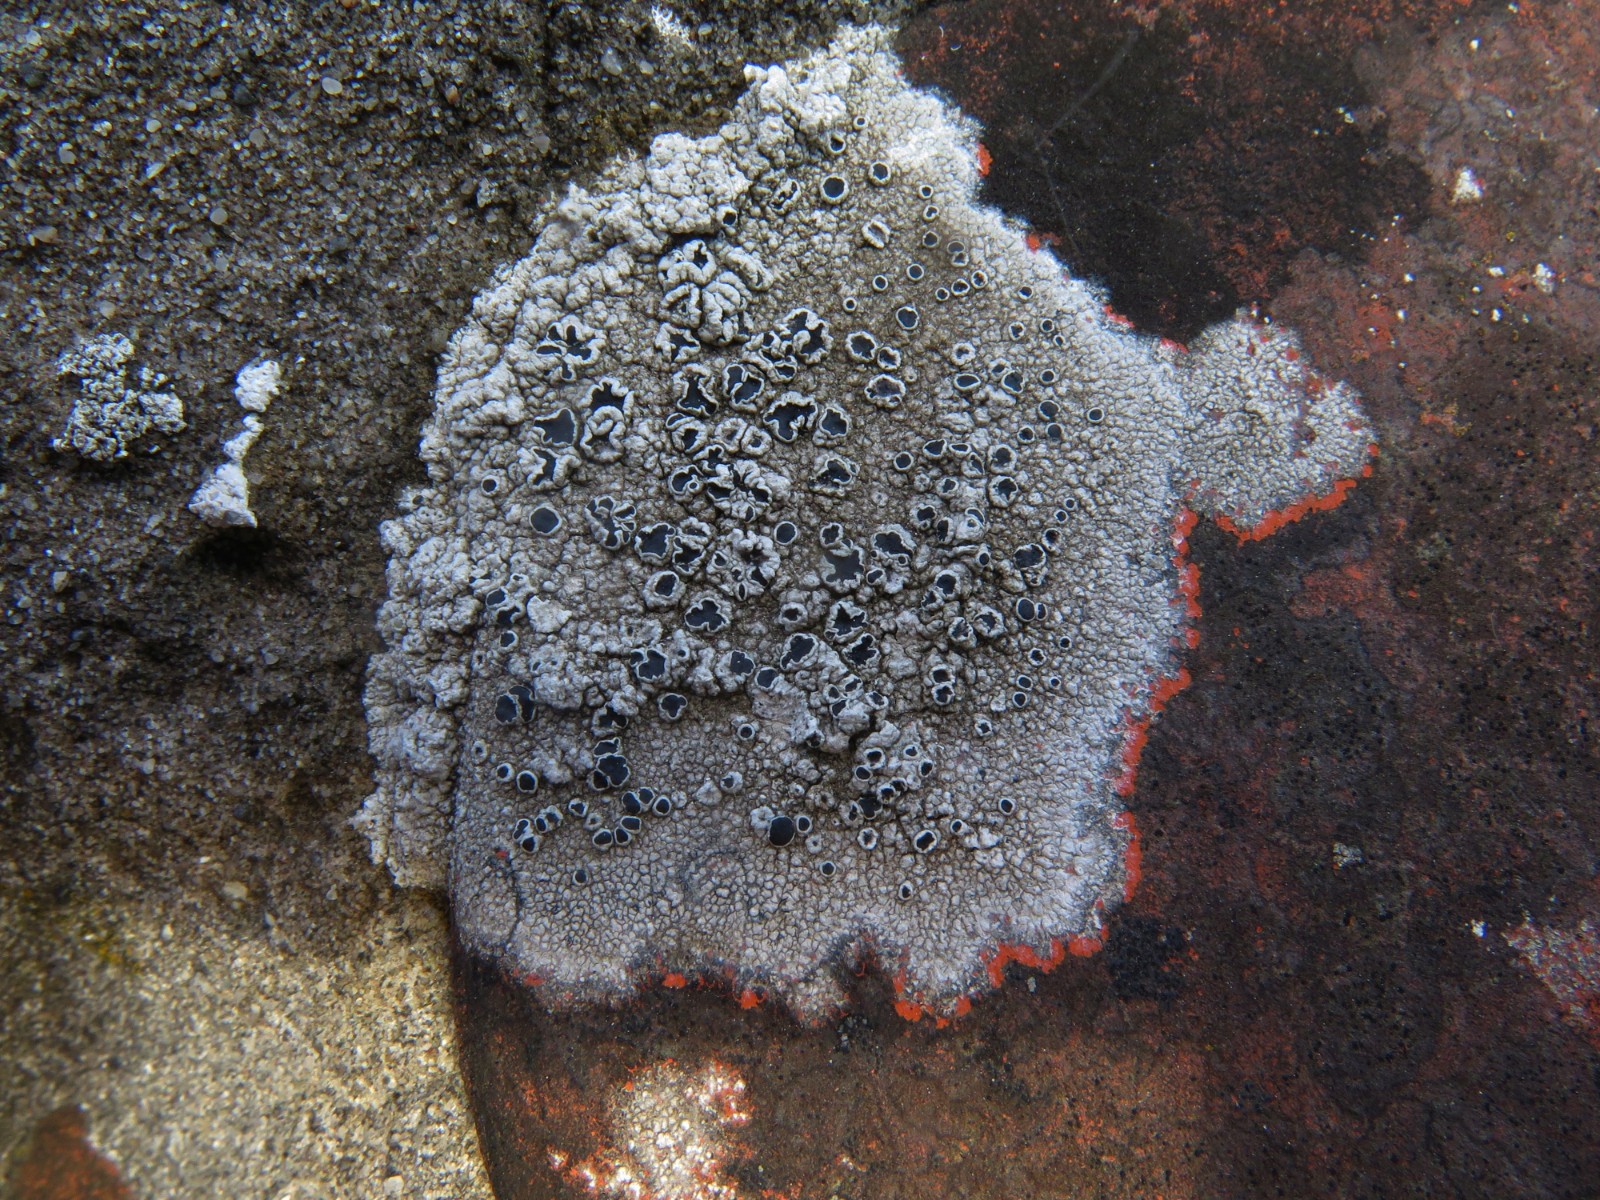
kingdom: Fungi
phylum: Ascomycota
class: Lecanoromycetes
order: Lecanorales
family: Tephromelataceae
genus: Tephromela
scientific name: Tephromela atra
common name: sortfrugtet kantskivelav
